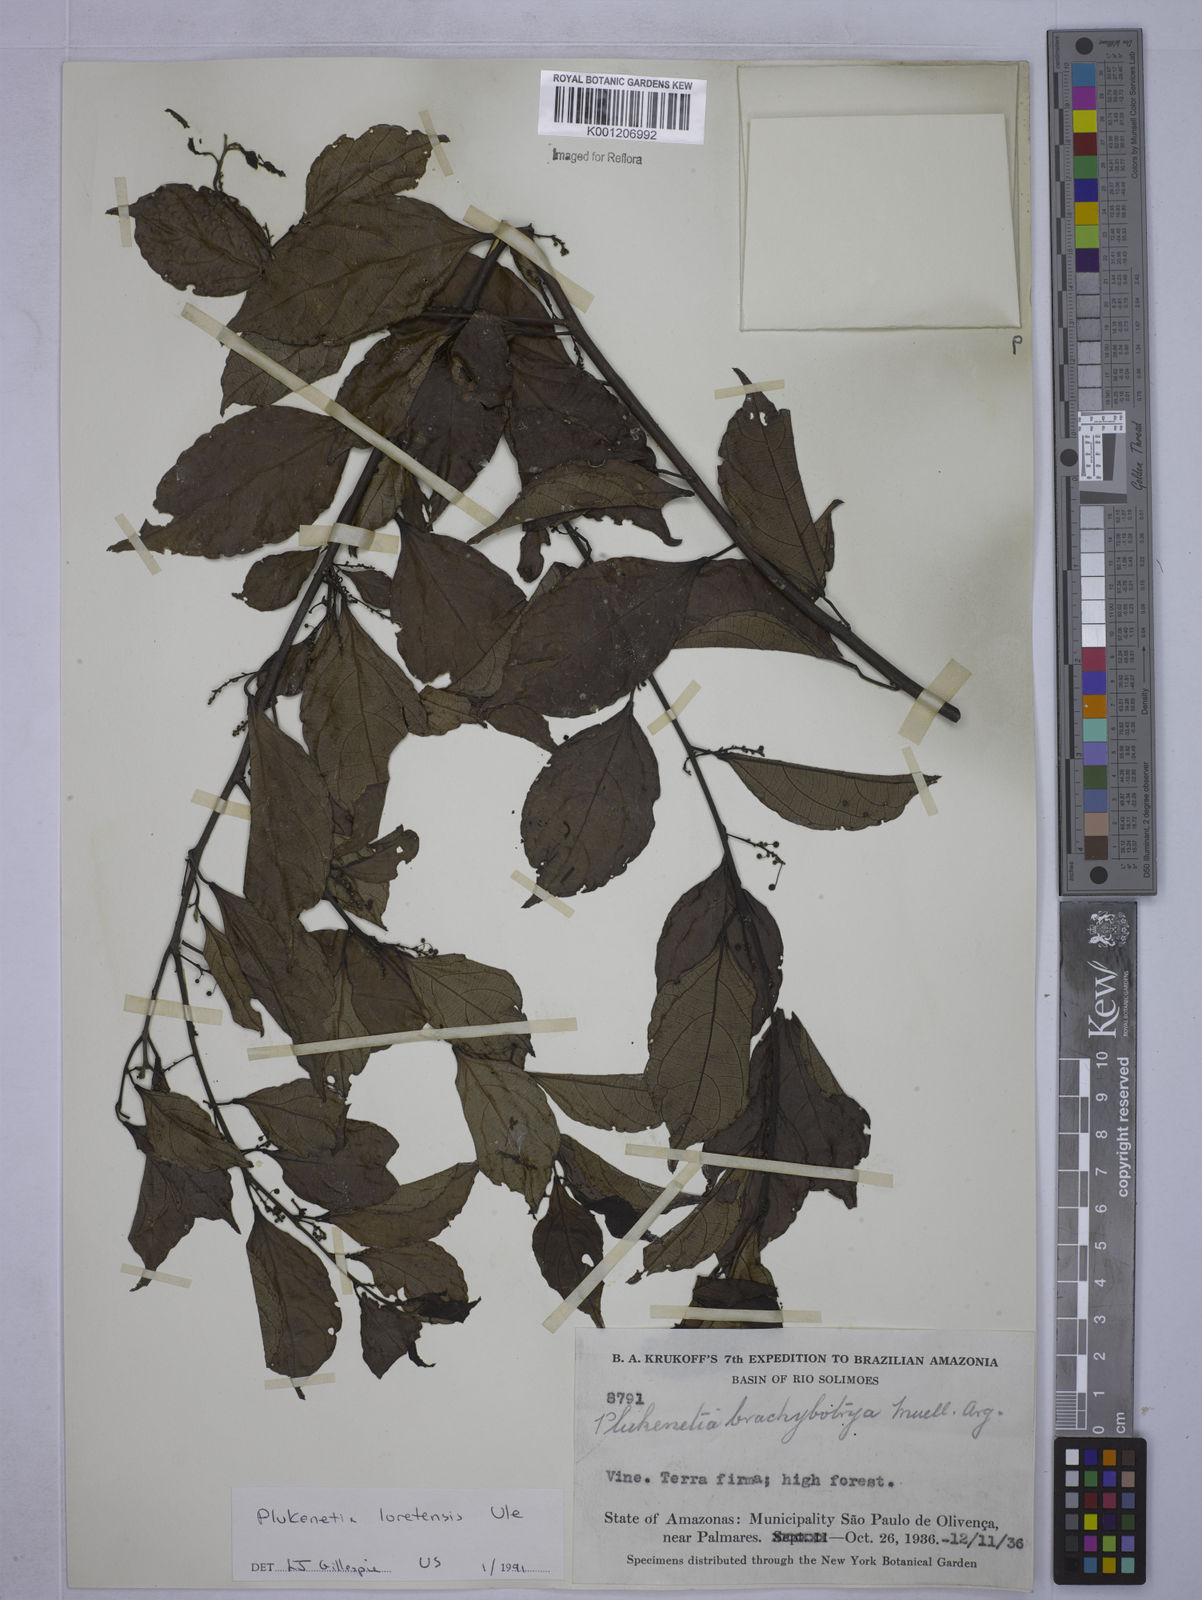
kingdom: Plantae
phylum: Tracheophyta
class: Magnoliopsida
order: Malpighiales
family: Euphorbiaceae
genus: Plukenetia
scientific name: Plukenetia loretensis
